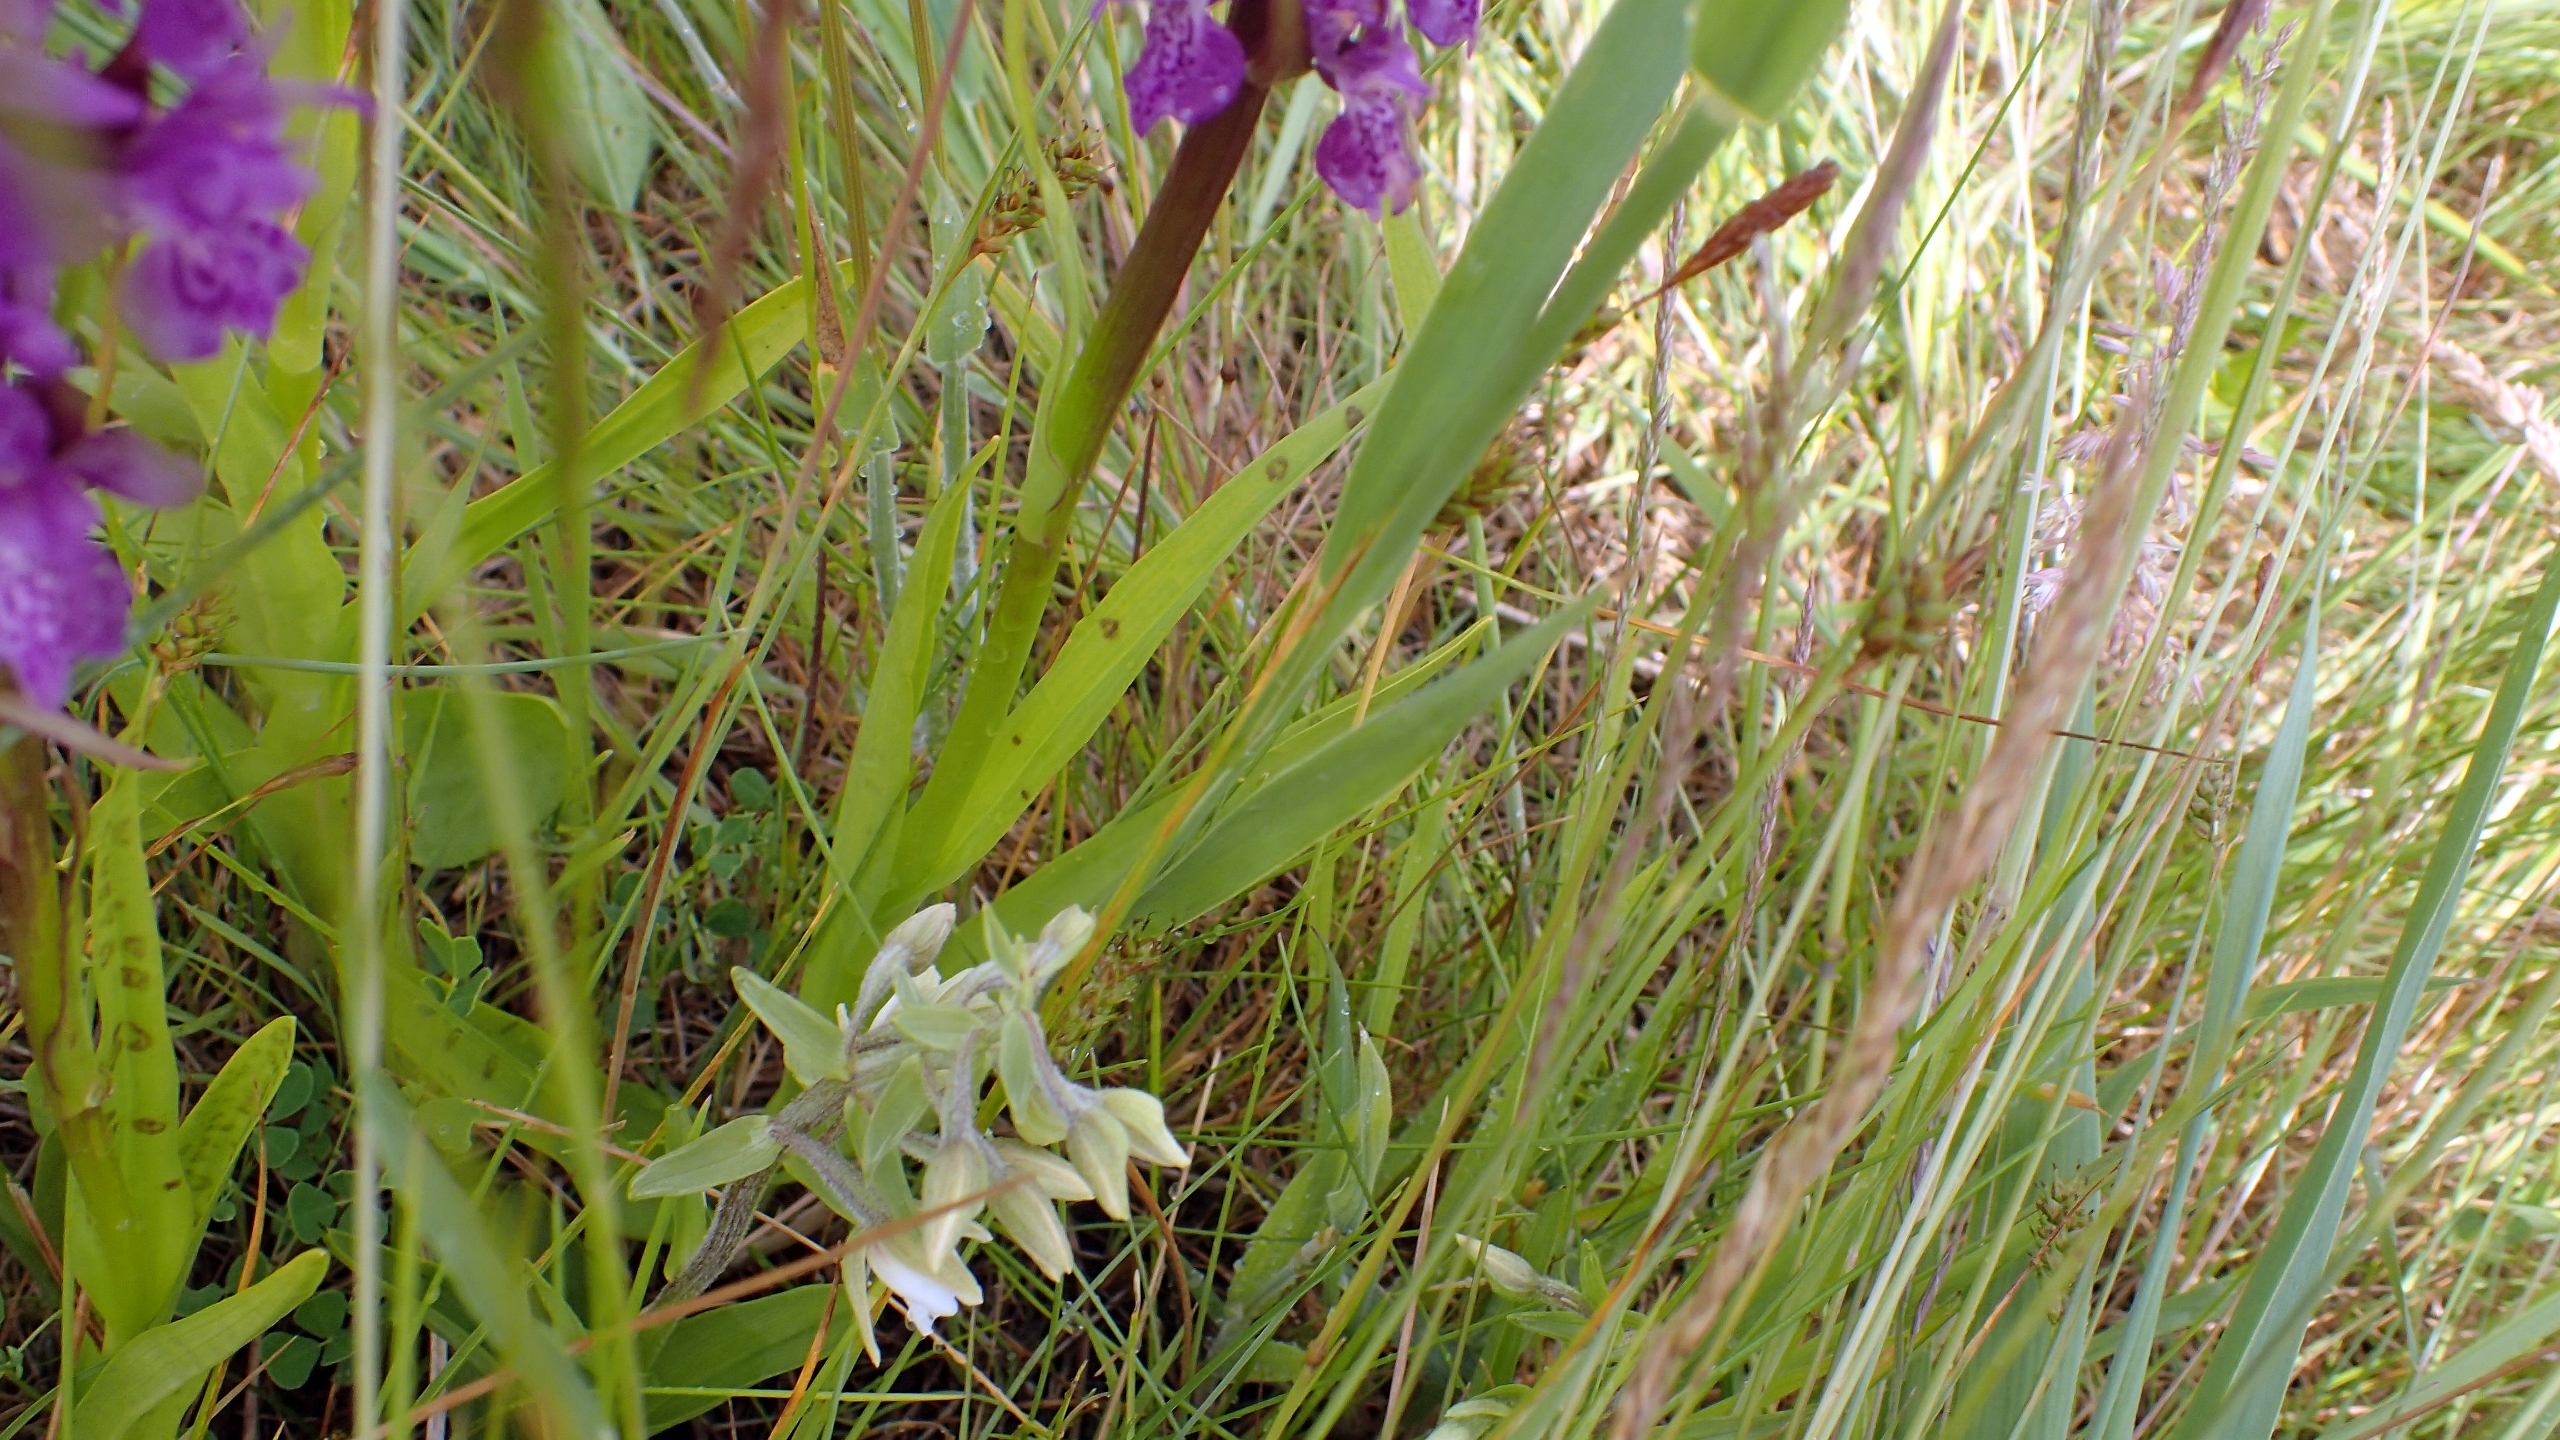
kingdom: Plantae
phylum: Tracheophyta
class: Liliopsida
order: Asparagales
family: Orchidaceae
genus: Epipactis
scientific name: Epipactis palustris
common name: Sump-hullæbe
